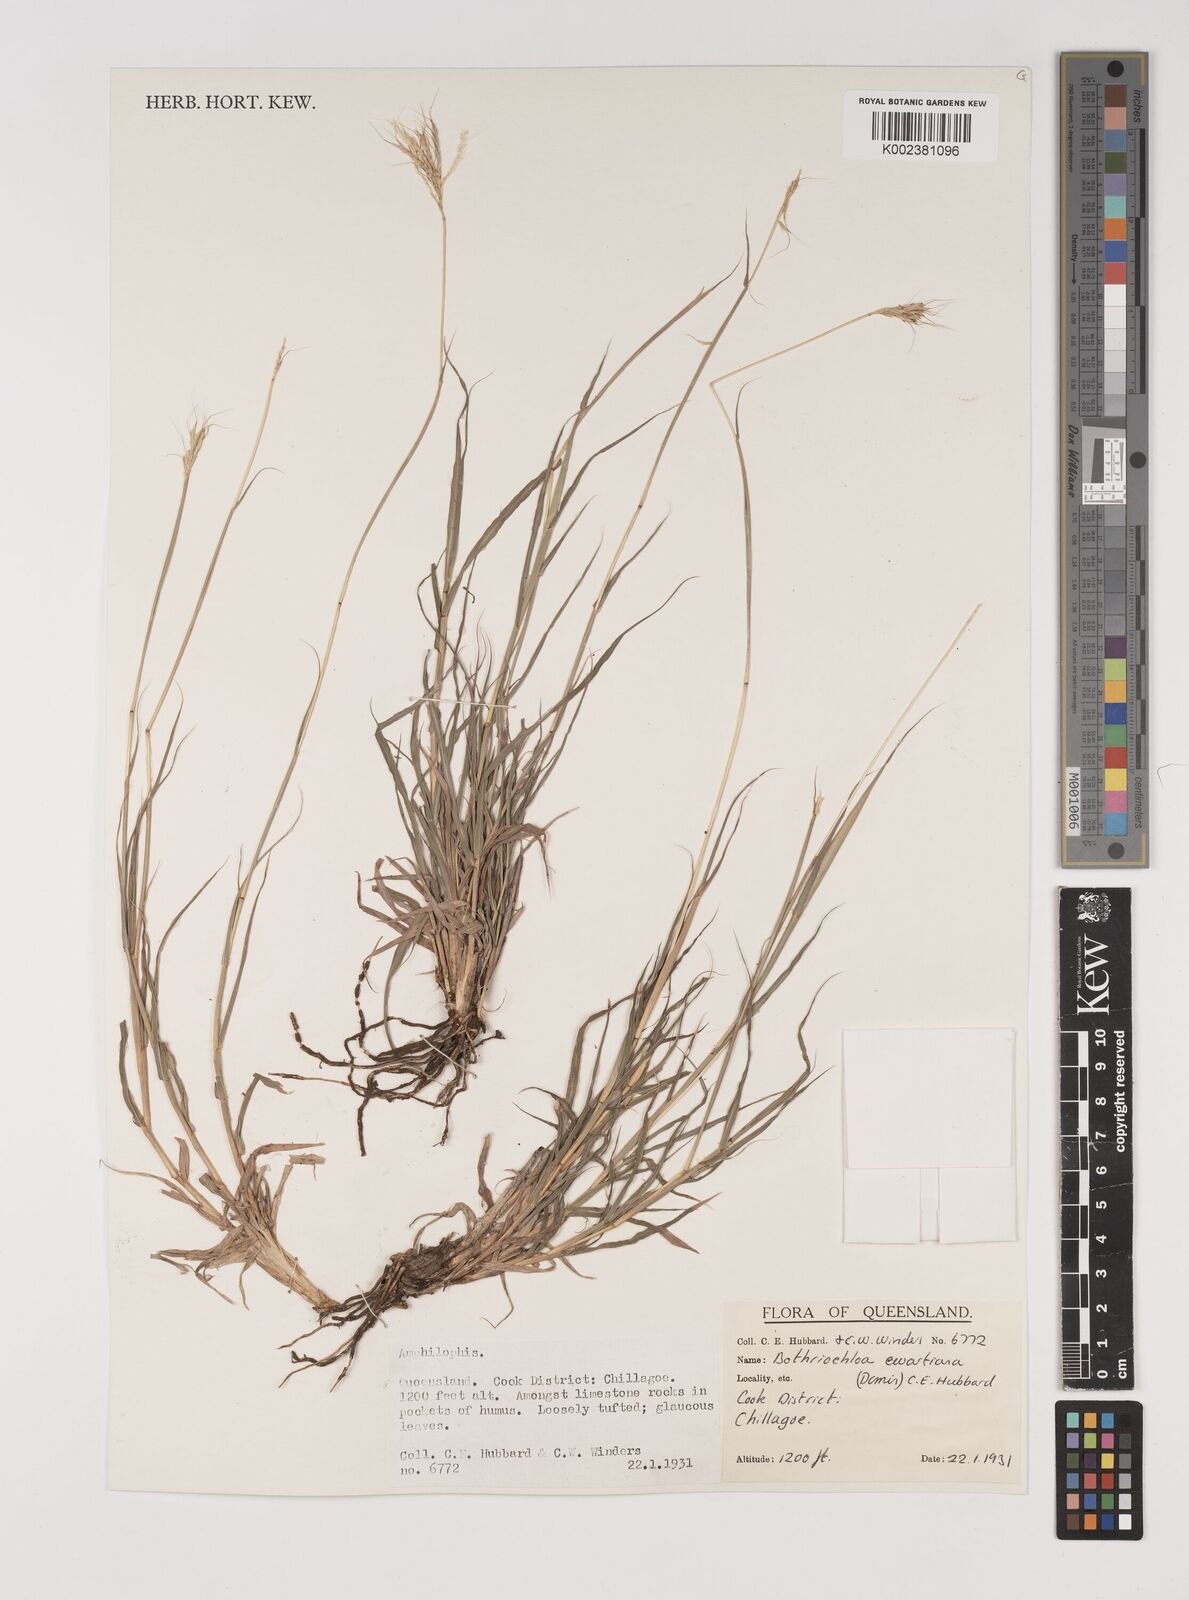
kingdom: Plantae
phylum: Tracheophyta
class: Liliopsida
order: Poales
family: Poaceae
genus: Bothriochloa
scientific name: Bothriochloa ewartiana
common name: Desert-bluegrass
